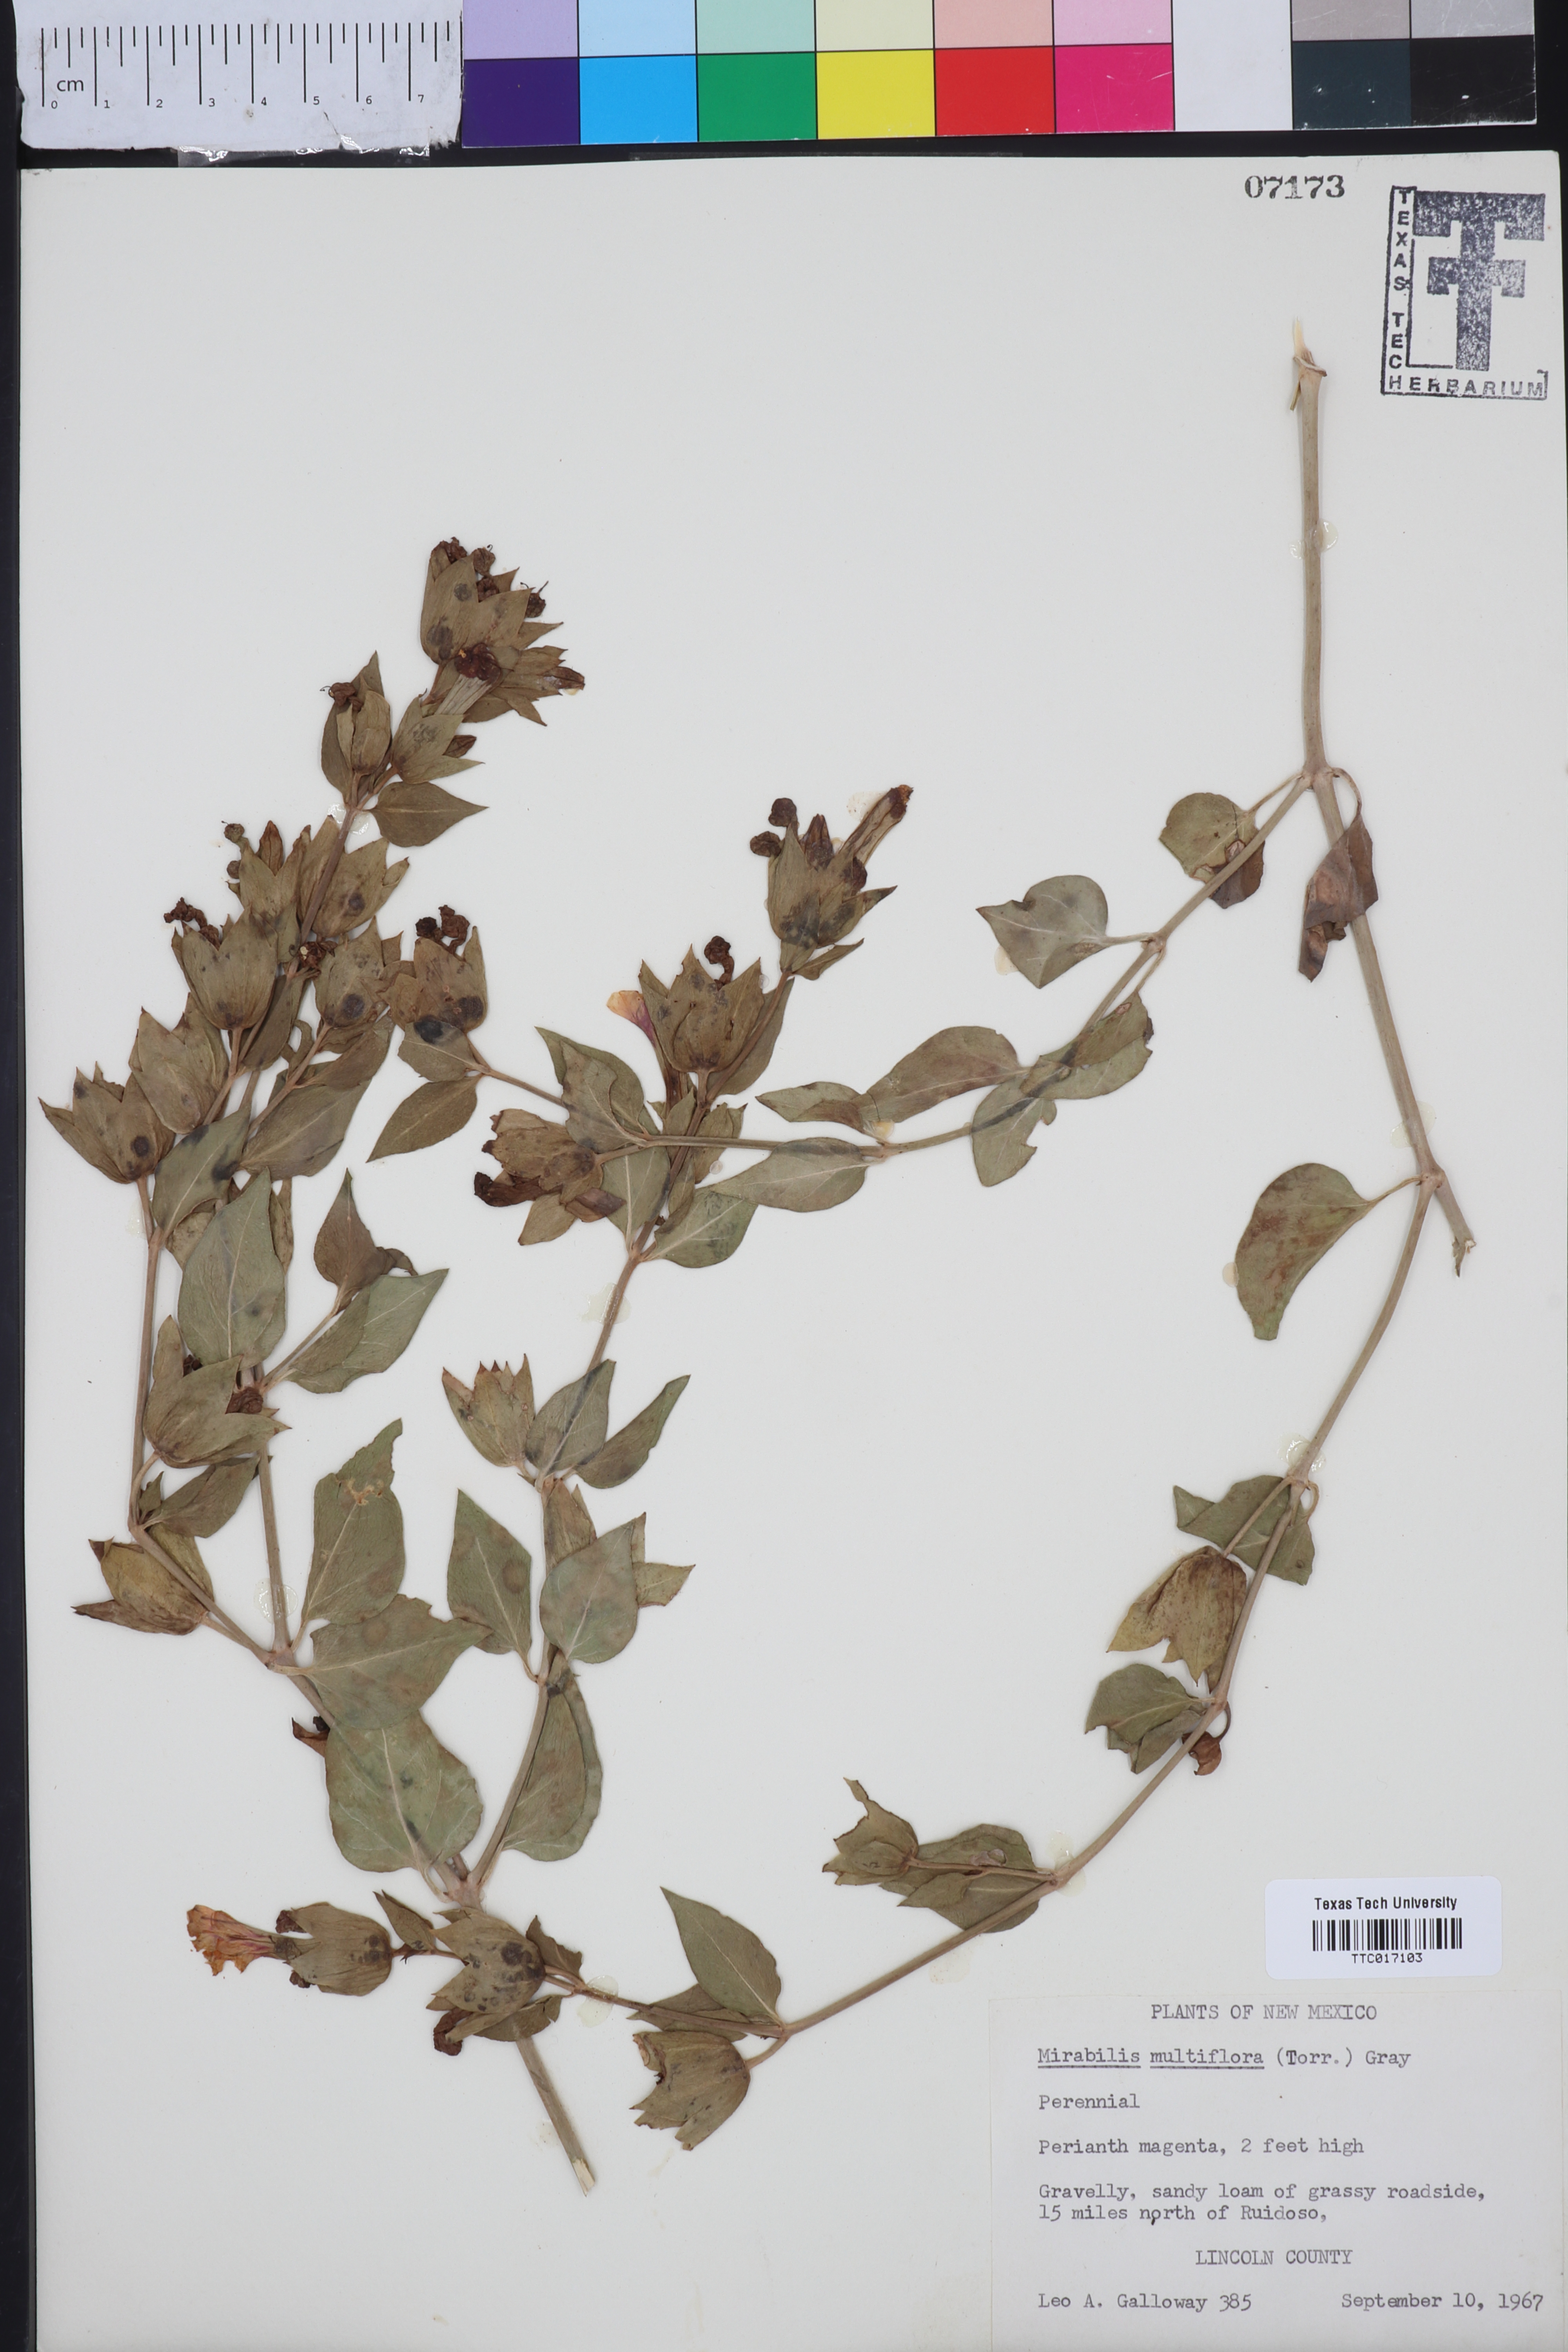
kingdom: Plantae
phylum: Tracheophyta
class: Magnoliopsida
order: Caryophyllales
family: Nyctaginaceae
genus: Mirabilis
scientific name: Mirabilis multiflora
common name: Froebel's four-o'clock
